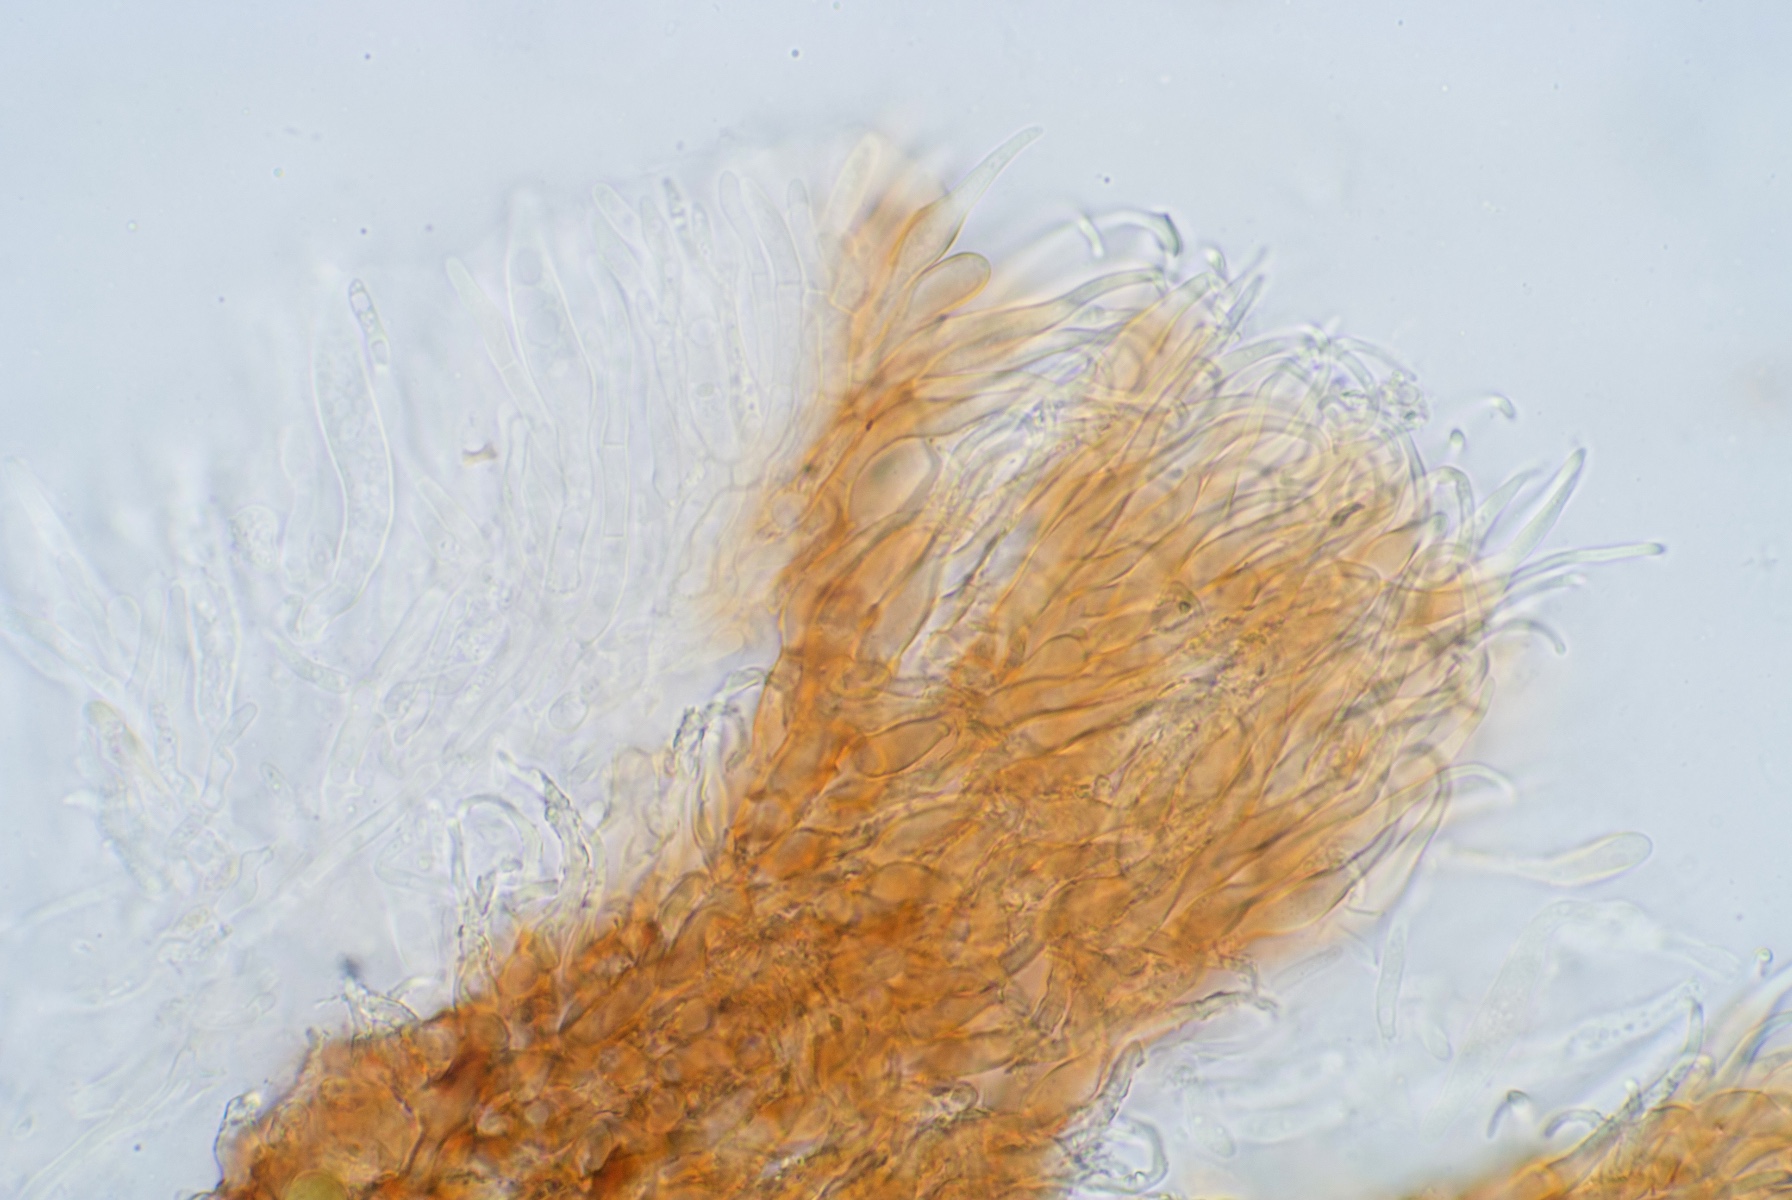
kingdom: Fungi
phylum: Ascomycota
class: Leotiomycetes
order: Helotiales
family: Hyaloscyphaceae
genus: Unguiculella
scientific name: Unguiculella robergei
